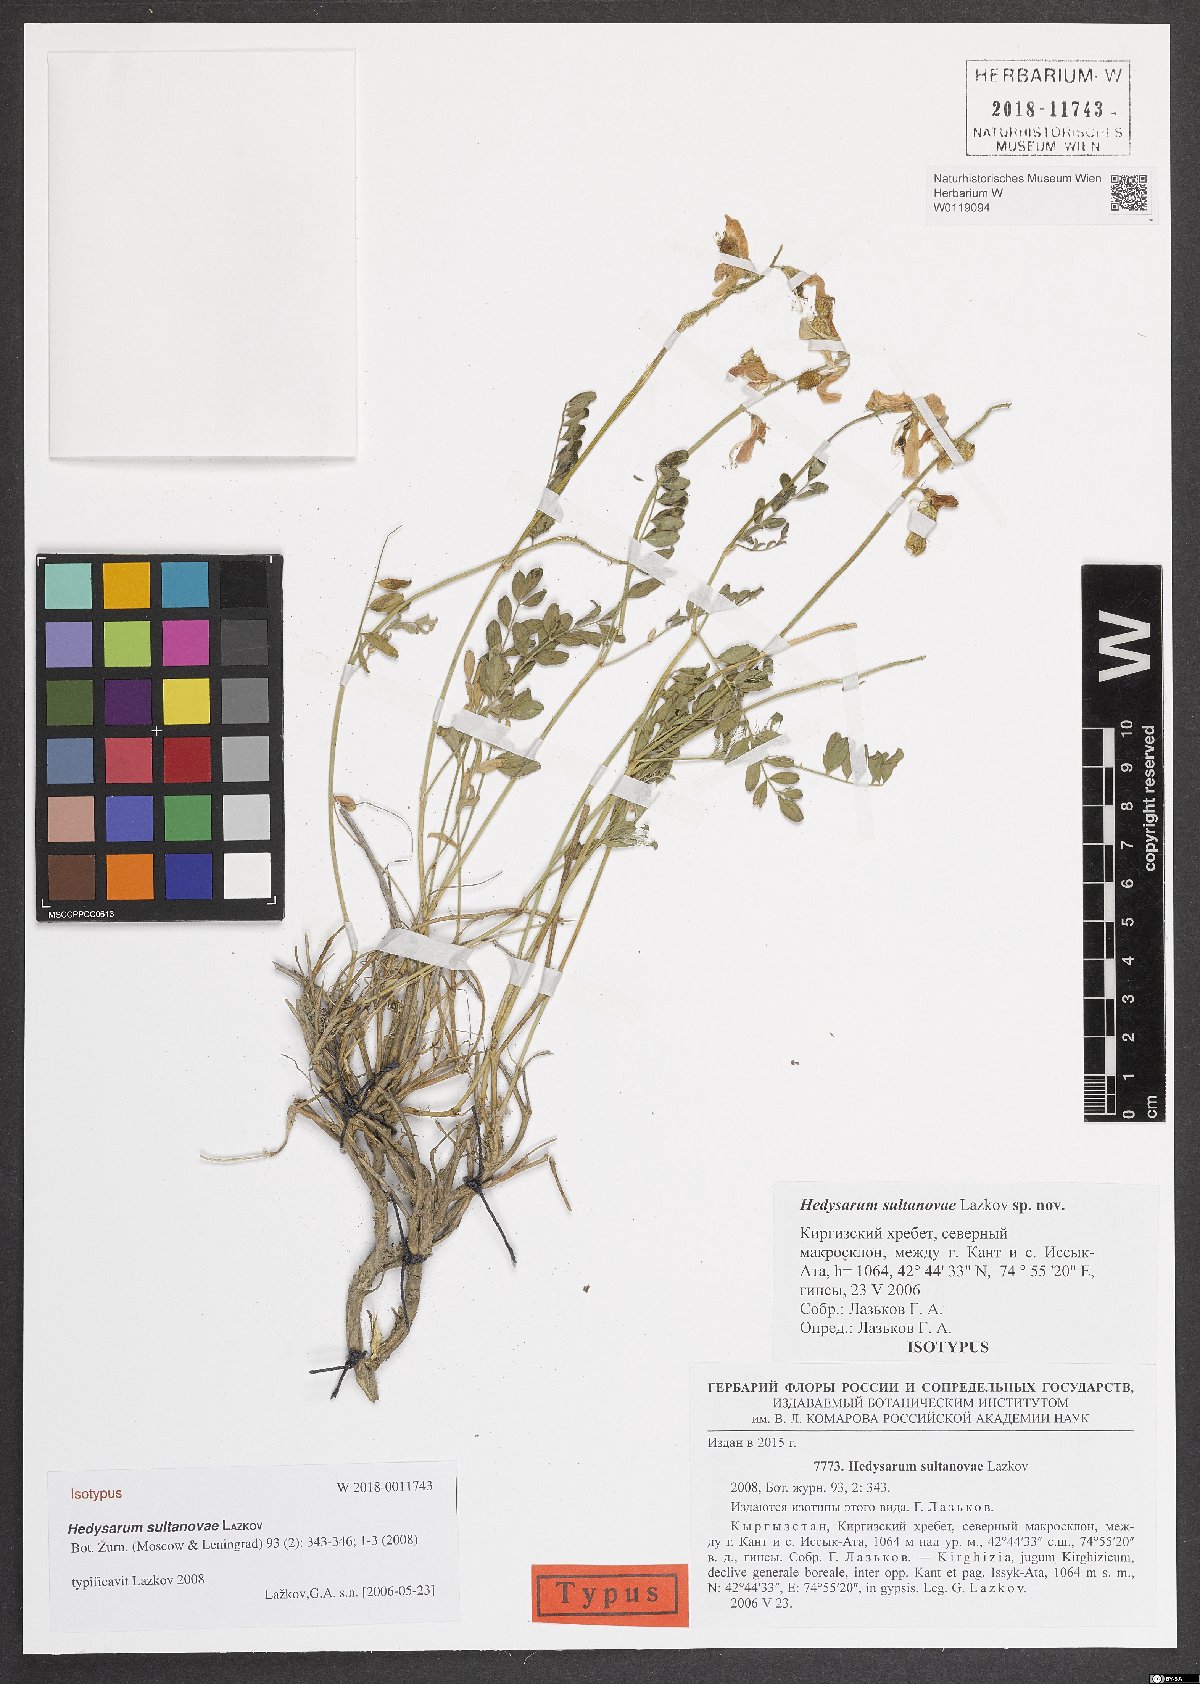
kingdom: Plantae
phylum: Tracheophyta
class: Magnoliopsida
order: Fabales
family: Fabaceae
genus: Hedysarum
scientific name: Hedysarum sultanovae
